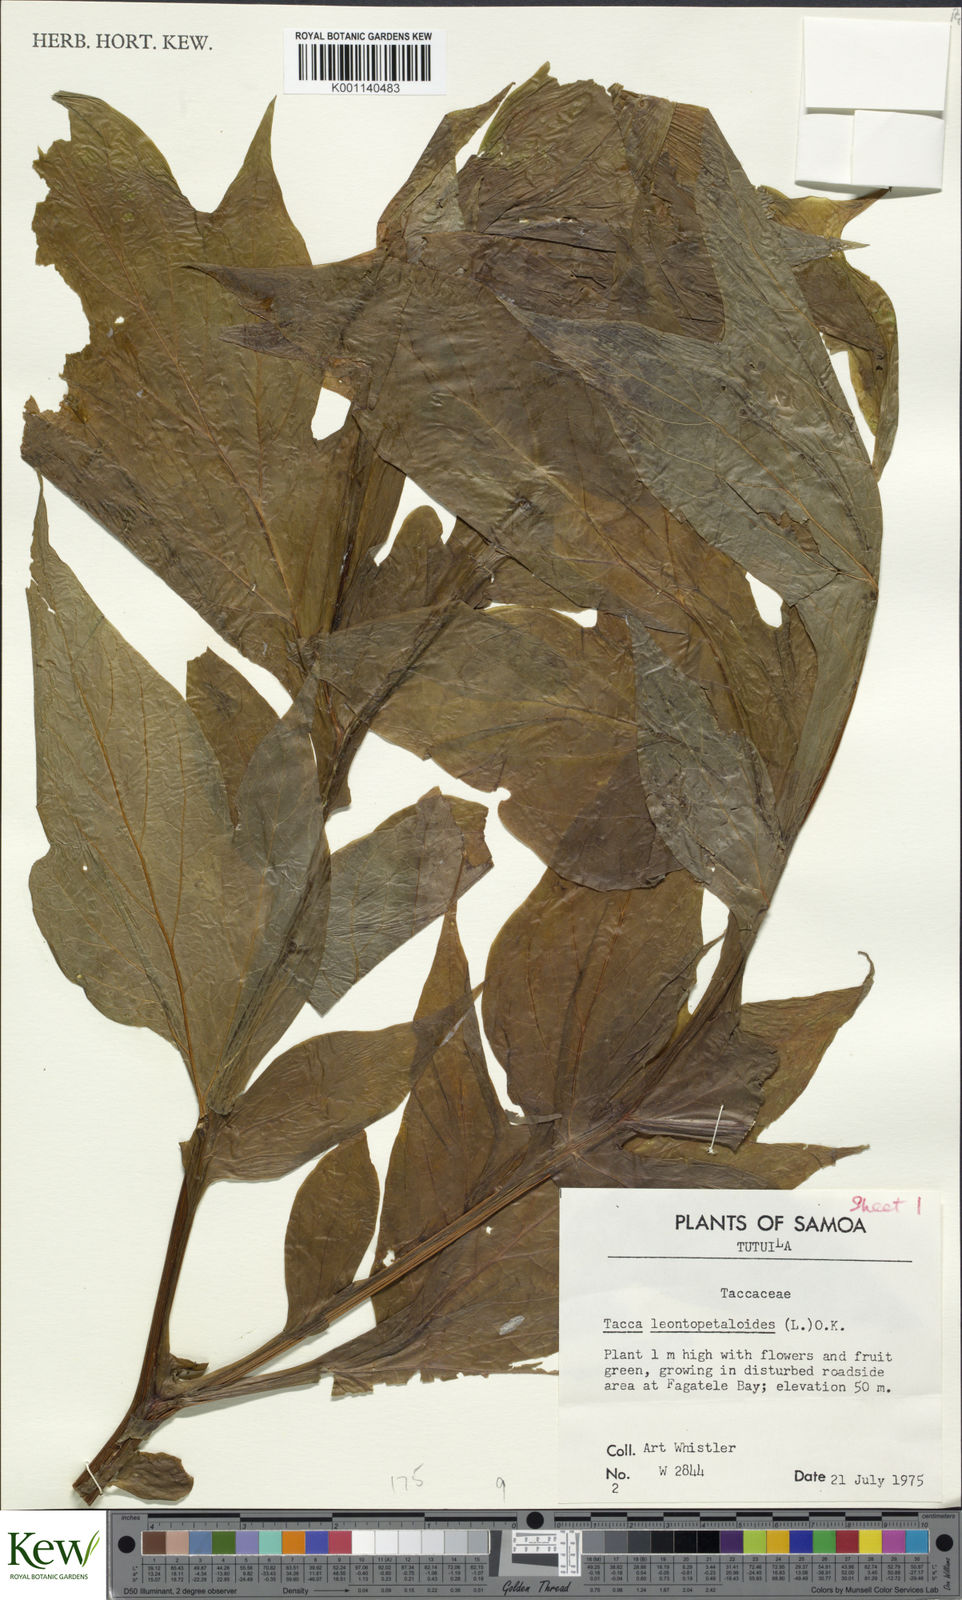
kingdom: Plantae
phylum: Tracheophyta
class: Liliopsida
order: Dioscoreales
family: Dioscoreaceae
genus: Tacca
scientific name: Tacca leontopetaloides
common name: Arrowroot
